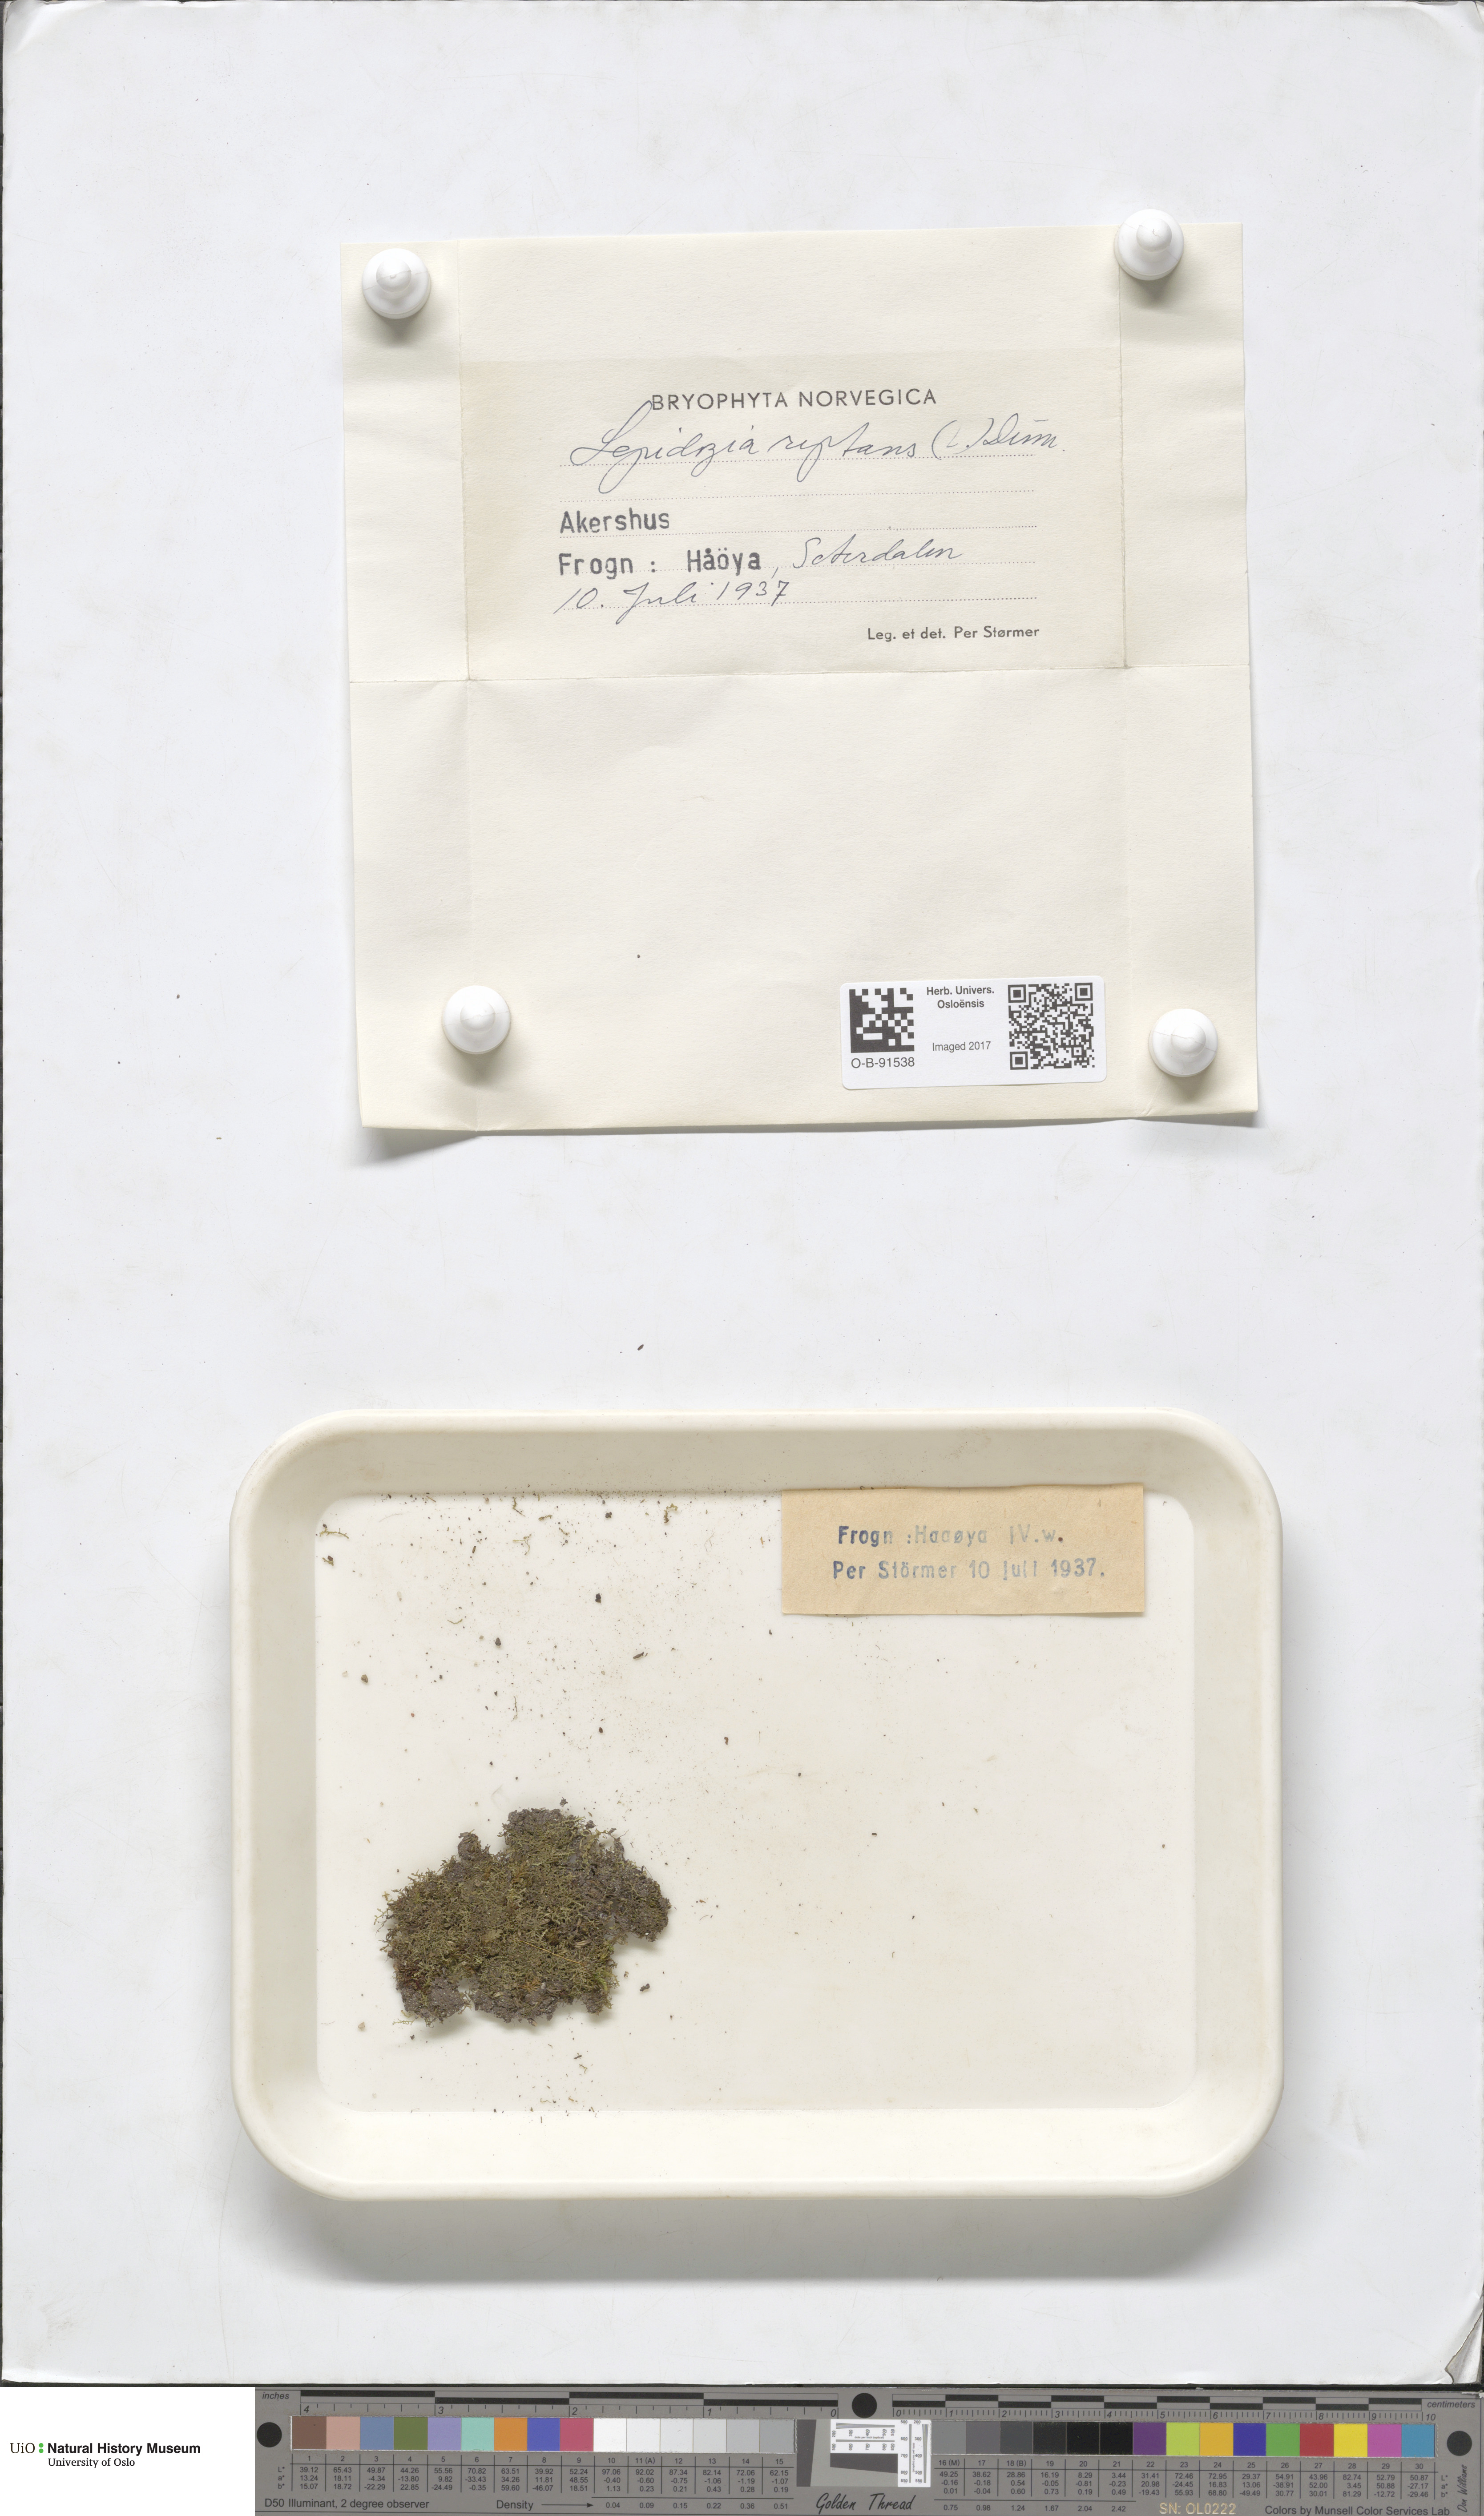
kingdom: Plantae
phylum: Marchantiophyta
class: Jungermanniopsida
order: Jungermanniales
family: Lepidoziaceae
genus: Lepidozia
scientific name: Lepidozia reptans
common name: Creeping fingerwort
